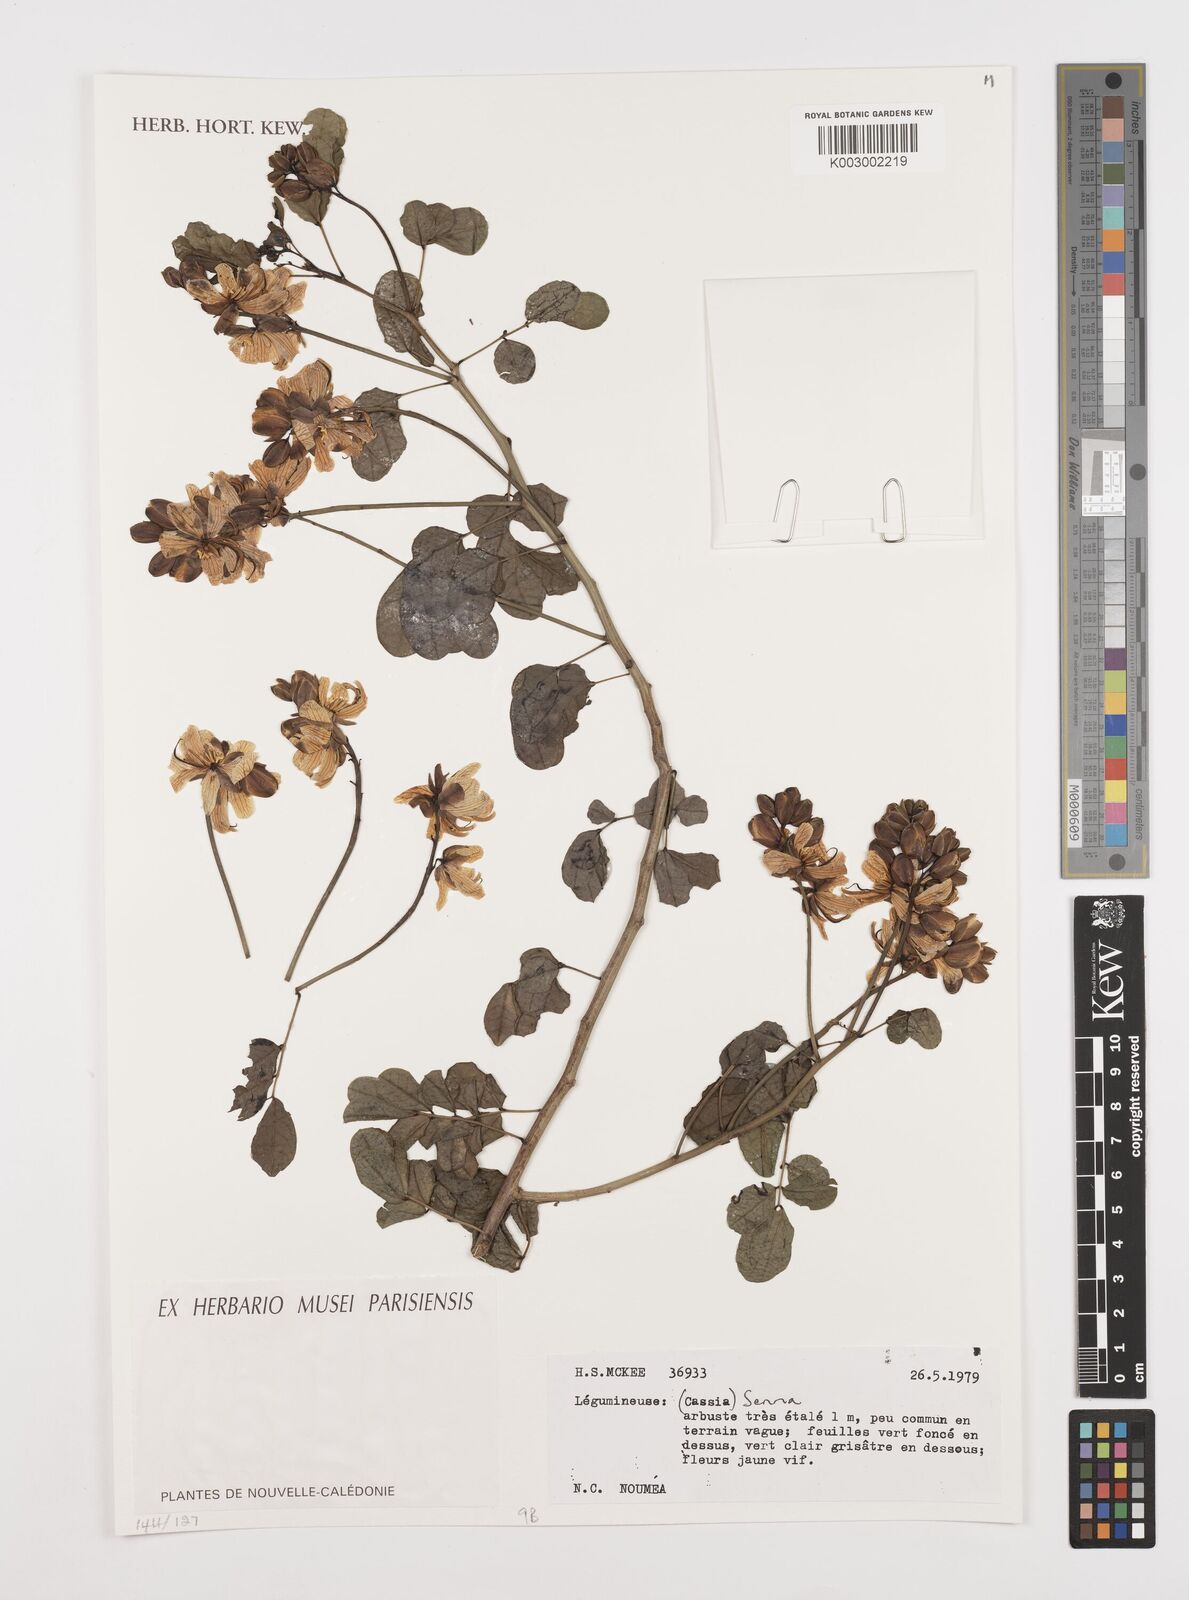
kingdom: Plantae
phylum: Tracheophyta
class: Magnoliopsida
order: Fabales
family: Fabaceae
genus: Cassia
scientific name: Cassia
